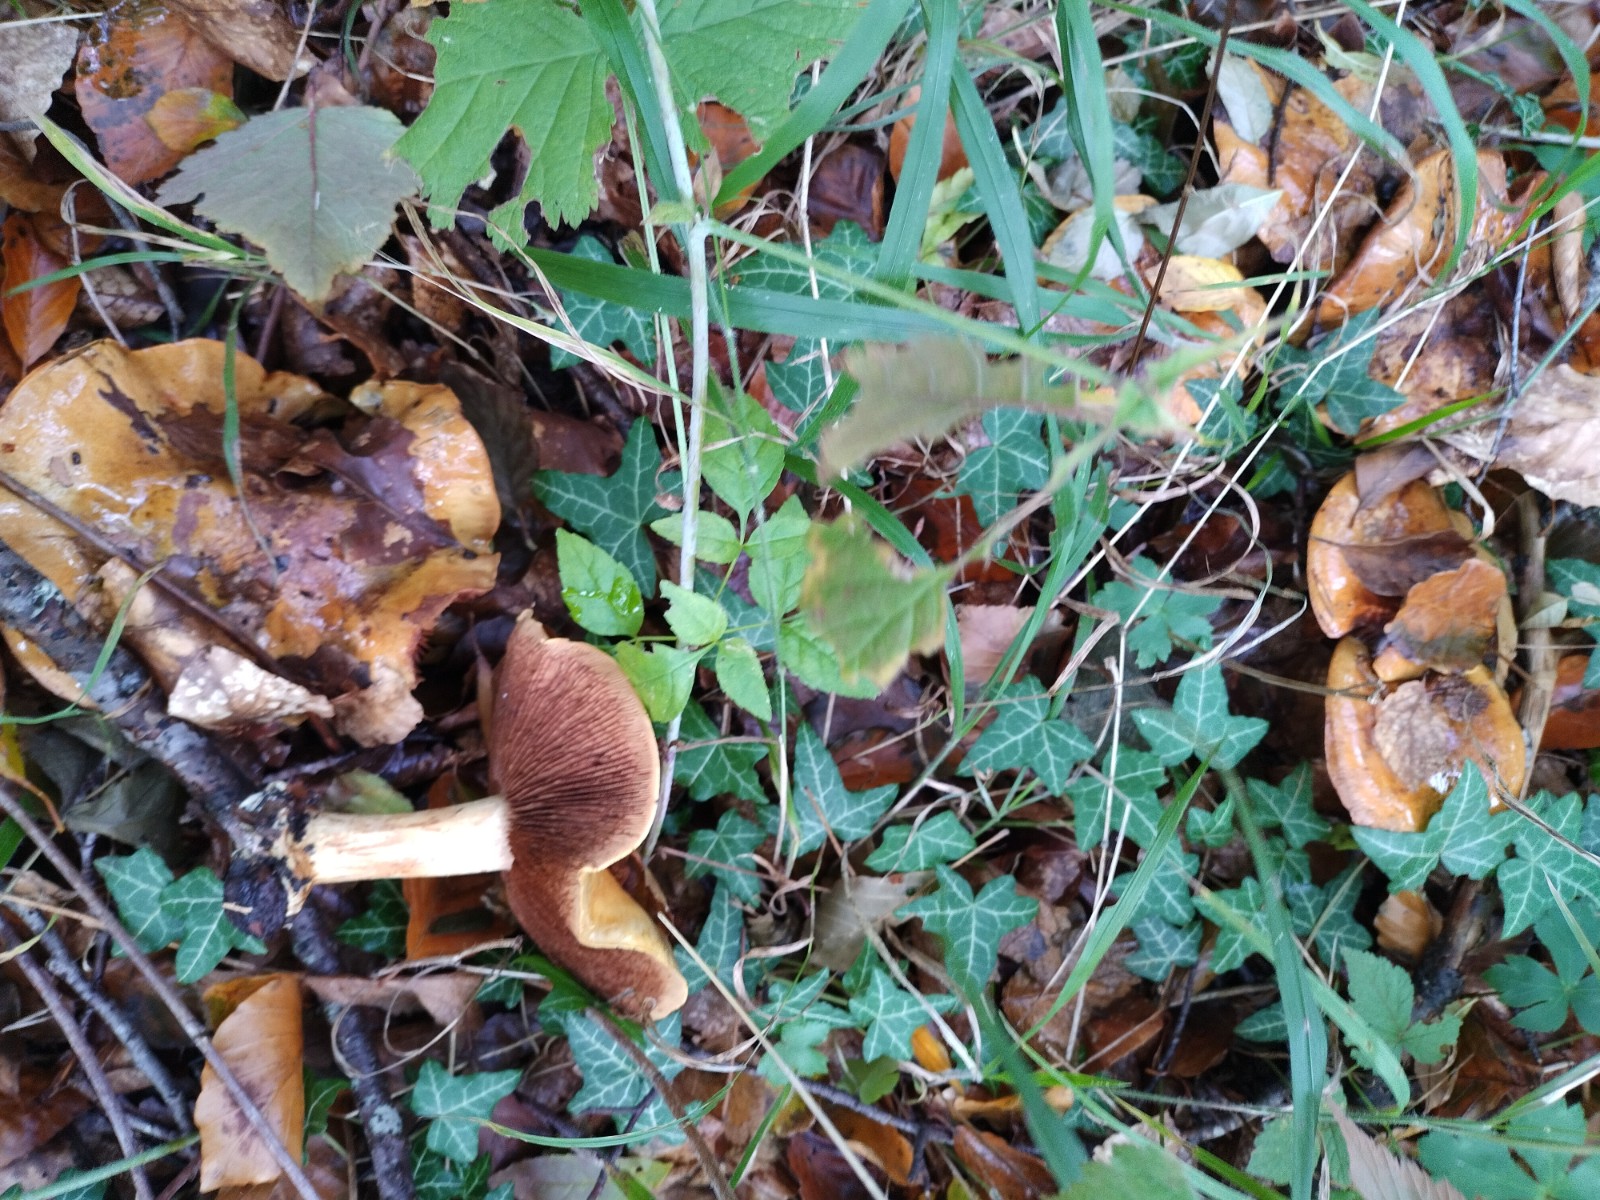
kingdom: Fungi
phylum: Basidiomycota
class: Agaricomycetes
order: Agaricales
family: Cortinariaceae
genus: Calonarius
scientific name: Calonarius alcalinophilus
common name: gyldenbrun slørhat
